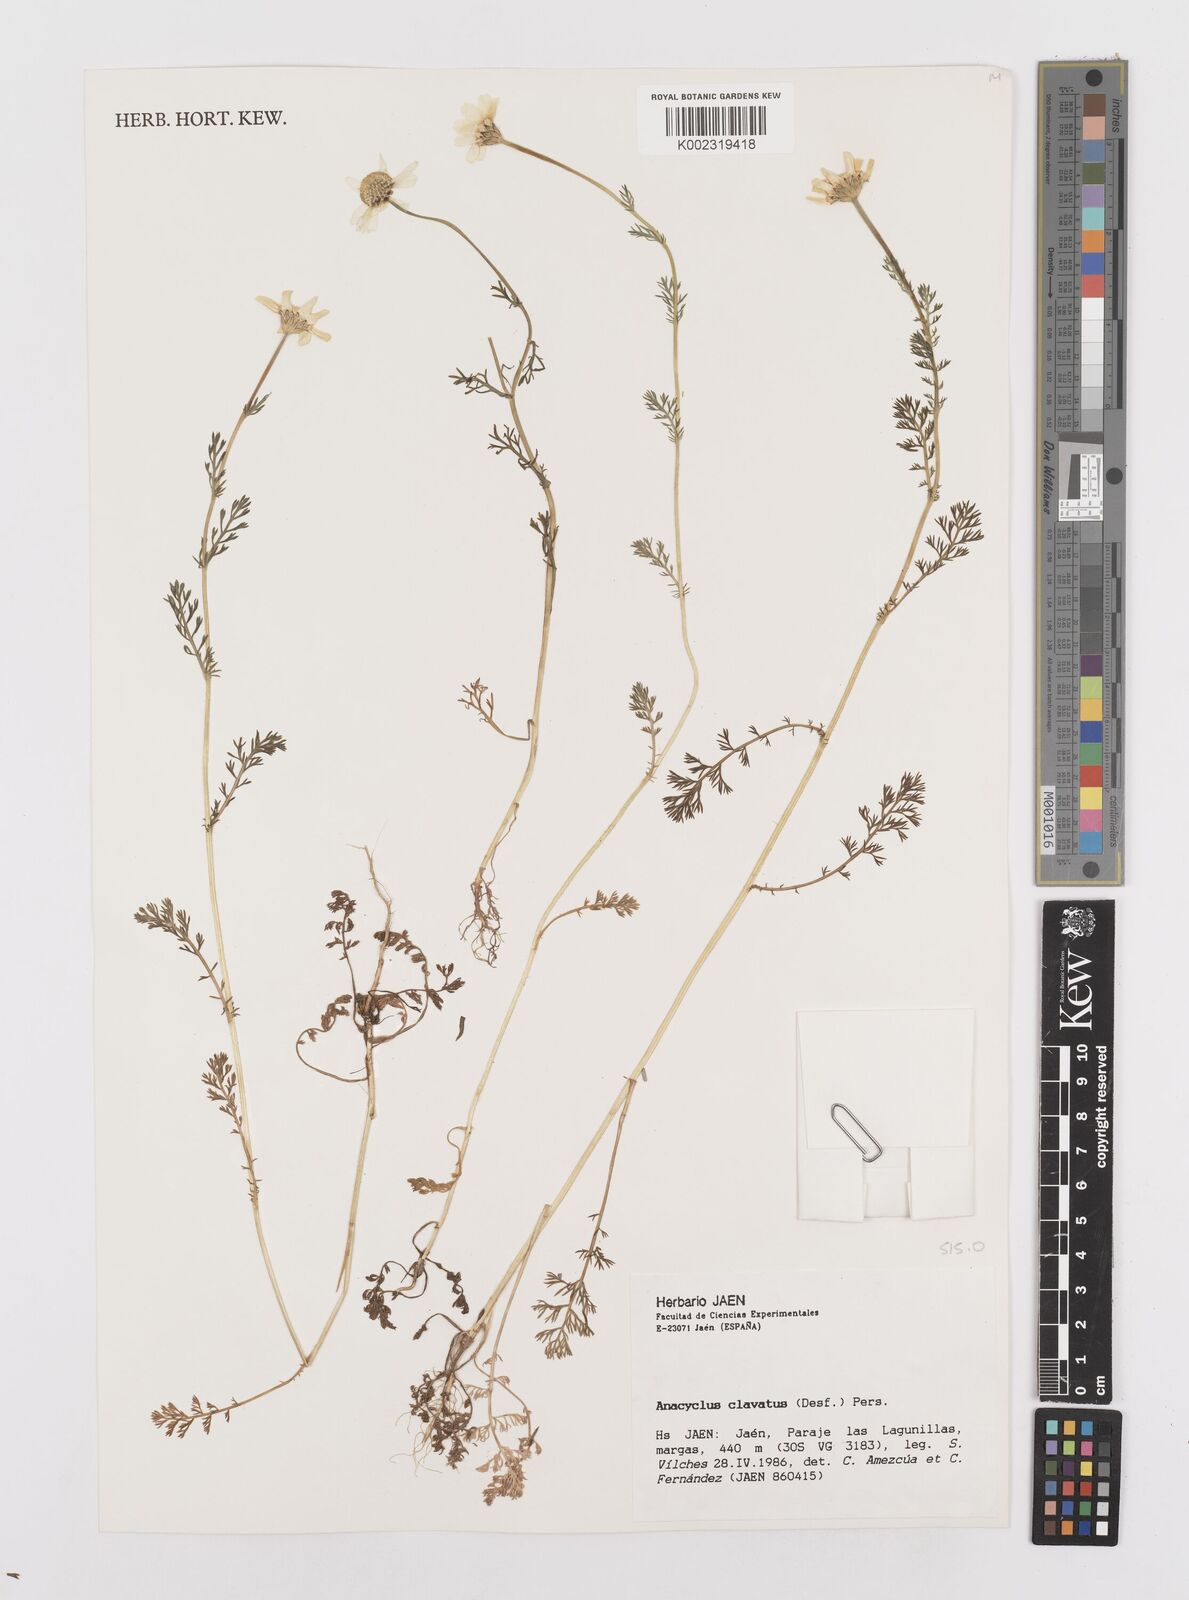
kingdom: Plantae
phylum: Tracheophyta
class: Magnoliopsida
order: Asterales
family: Asteraceae
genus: Anacyclus
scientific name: Anacyclus clavatus
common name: Whitebuttons
